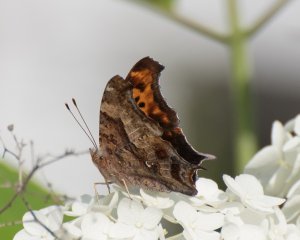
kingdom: Animalia
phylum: Arthropoda
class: Insecta
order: Lepidoptera
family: Nymphalidae
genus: Polygonia
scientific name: Polygonia interrogationis
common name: Question Mark
